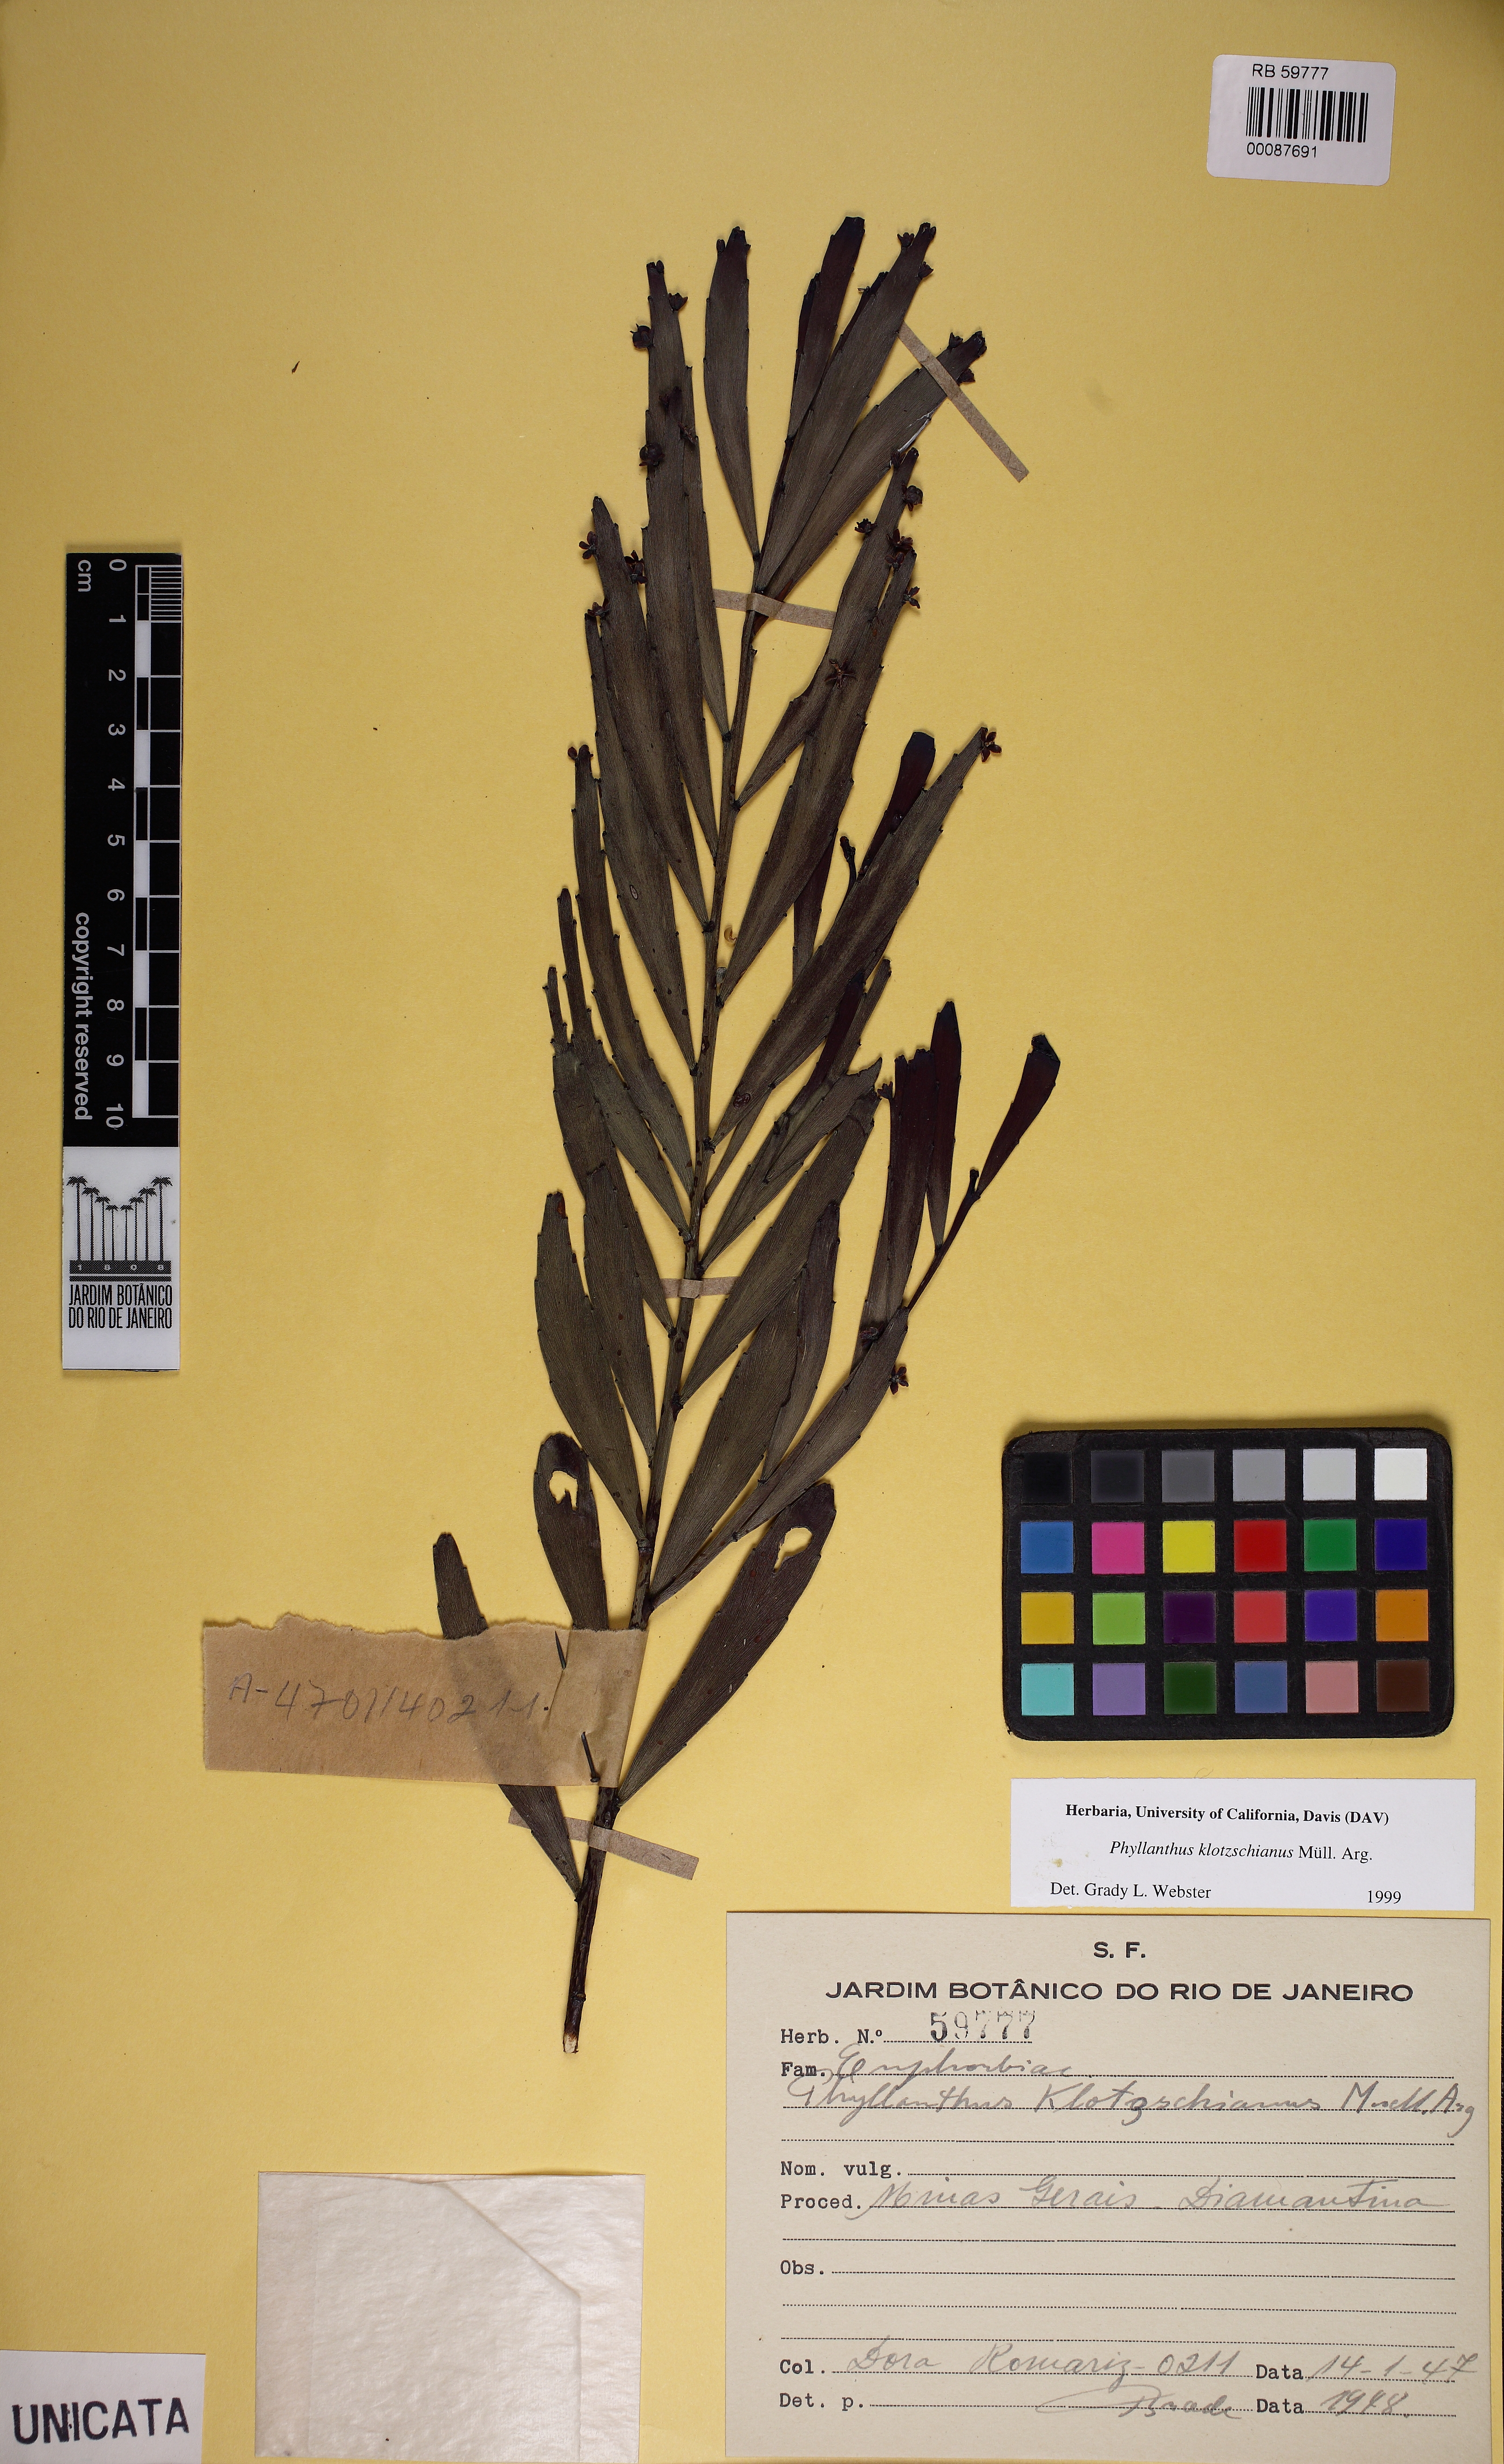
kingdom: Plantae
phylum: Tracheophyta
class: Magnoliopsida
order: Malpighiales
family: Phyllanthaceae
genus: Phyllanthus
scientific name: Phyllanthus robustus
